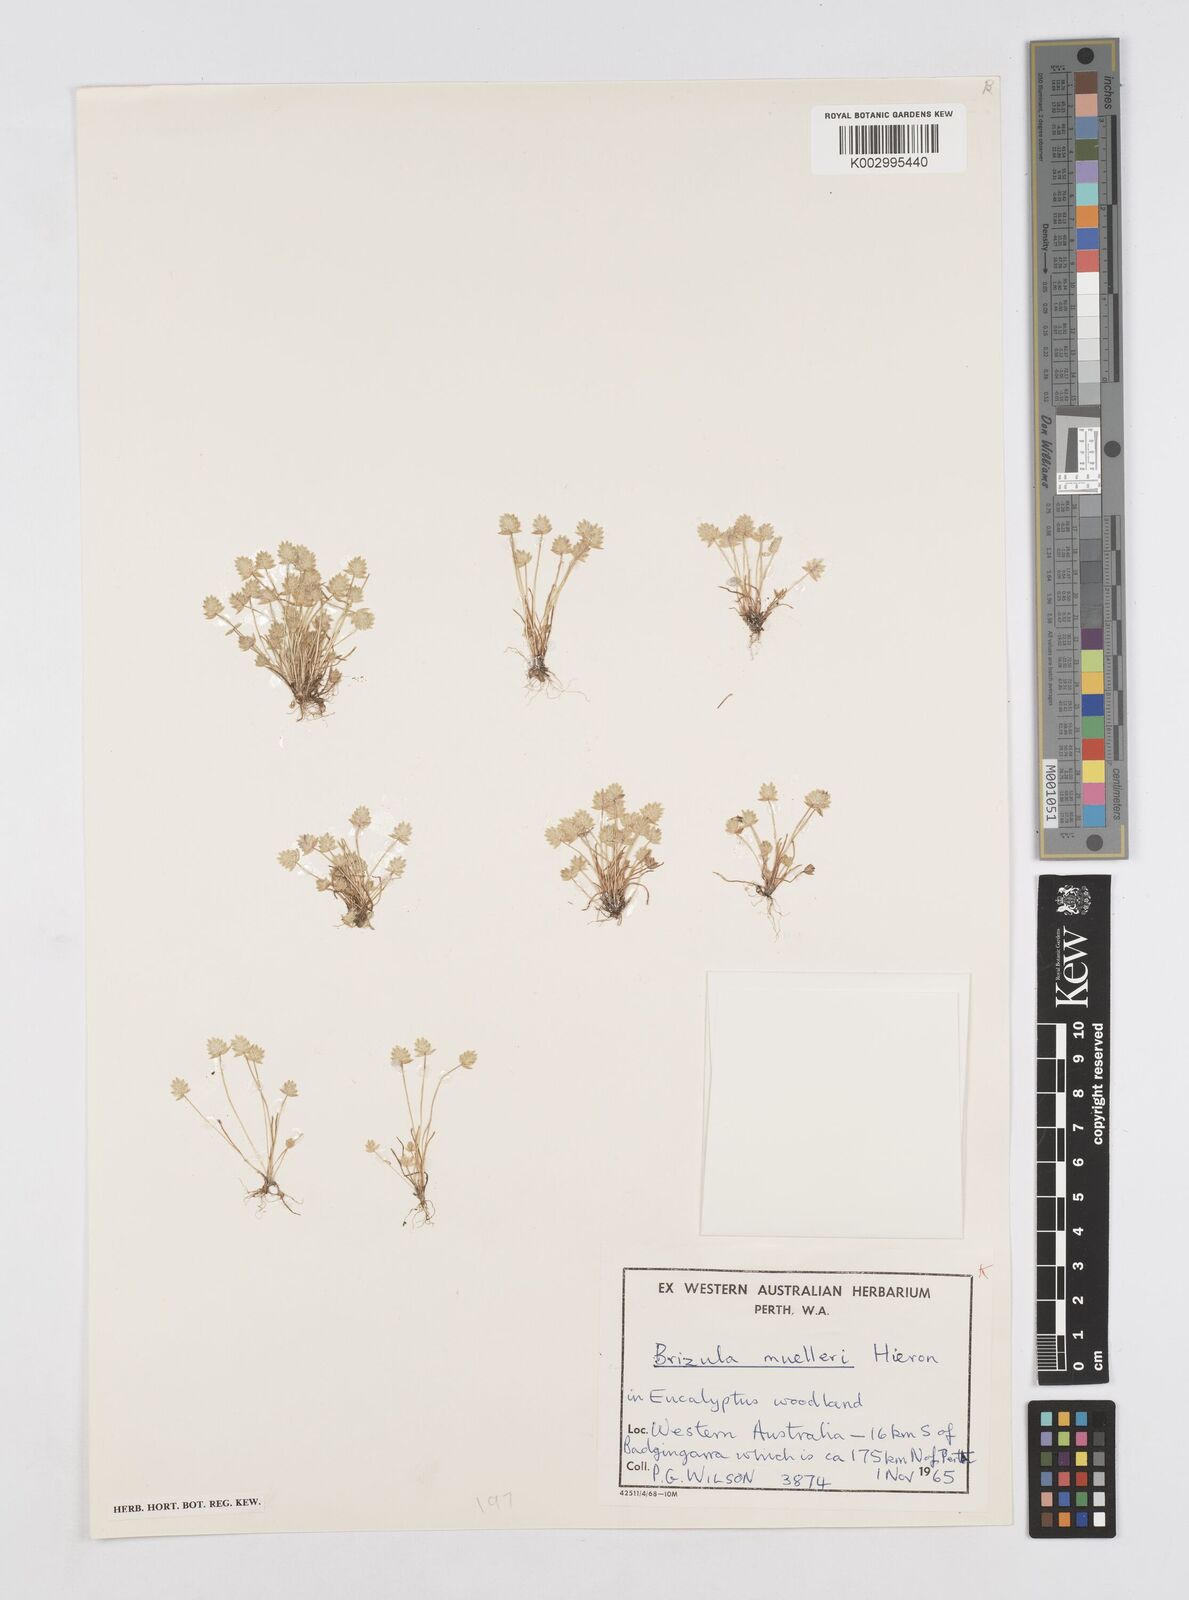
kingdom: Plantae
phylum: Tracheophyta
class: Liliopsida
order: Poales
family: Restionaceae
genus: Aphelia
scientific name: Aphelia
